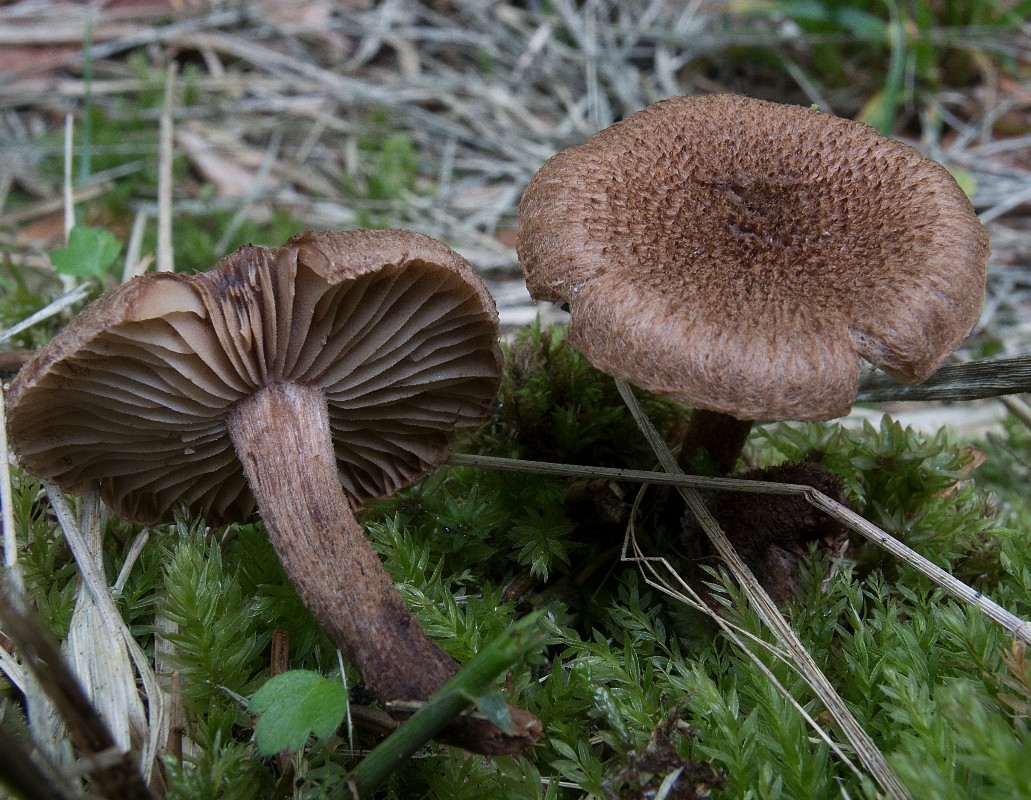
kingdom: Fungi
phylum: Basidiomycota
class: Agaricomycetes
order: Agaricales
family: Inocybaceae
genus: Inocybe
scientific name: Inocybe stellatospora
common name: spidsskællet trævlhat
